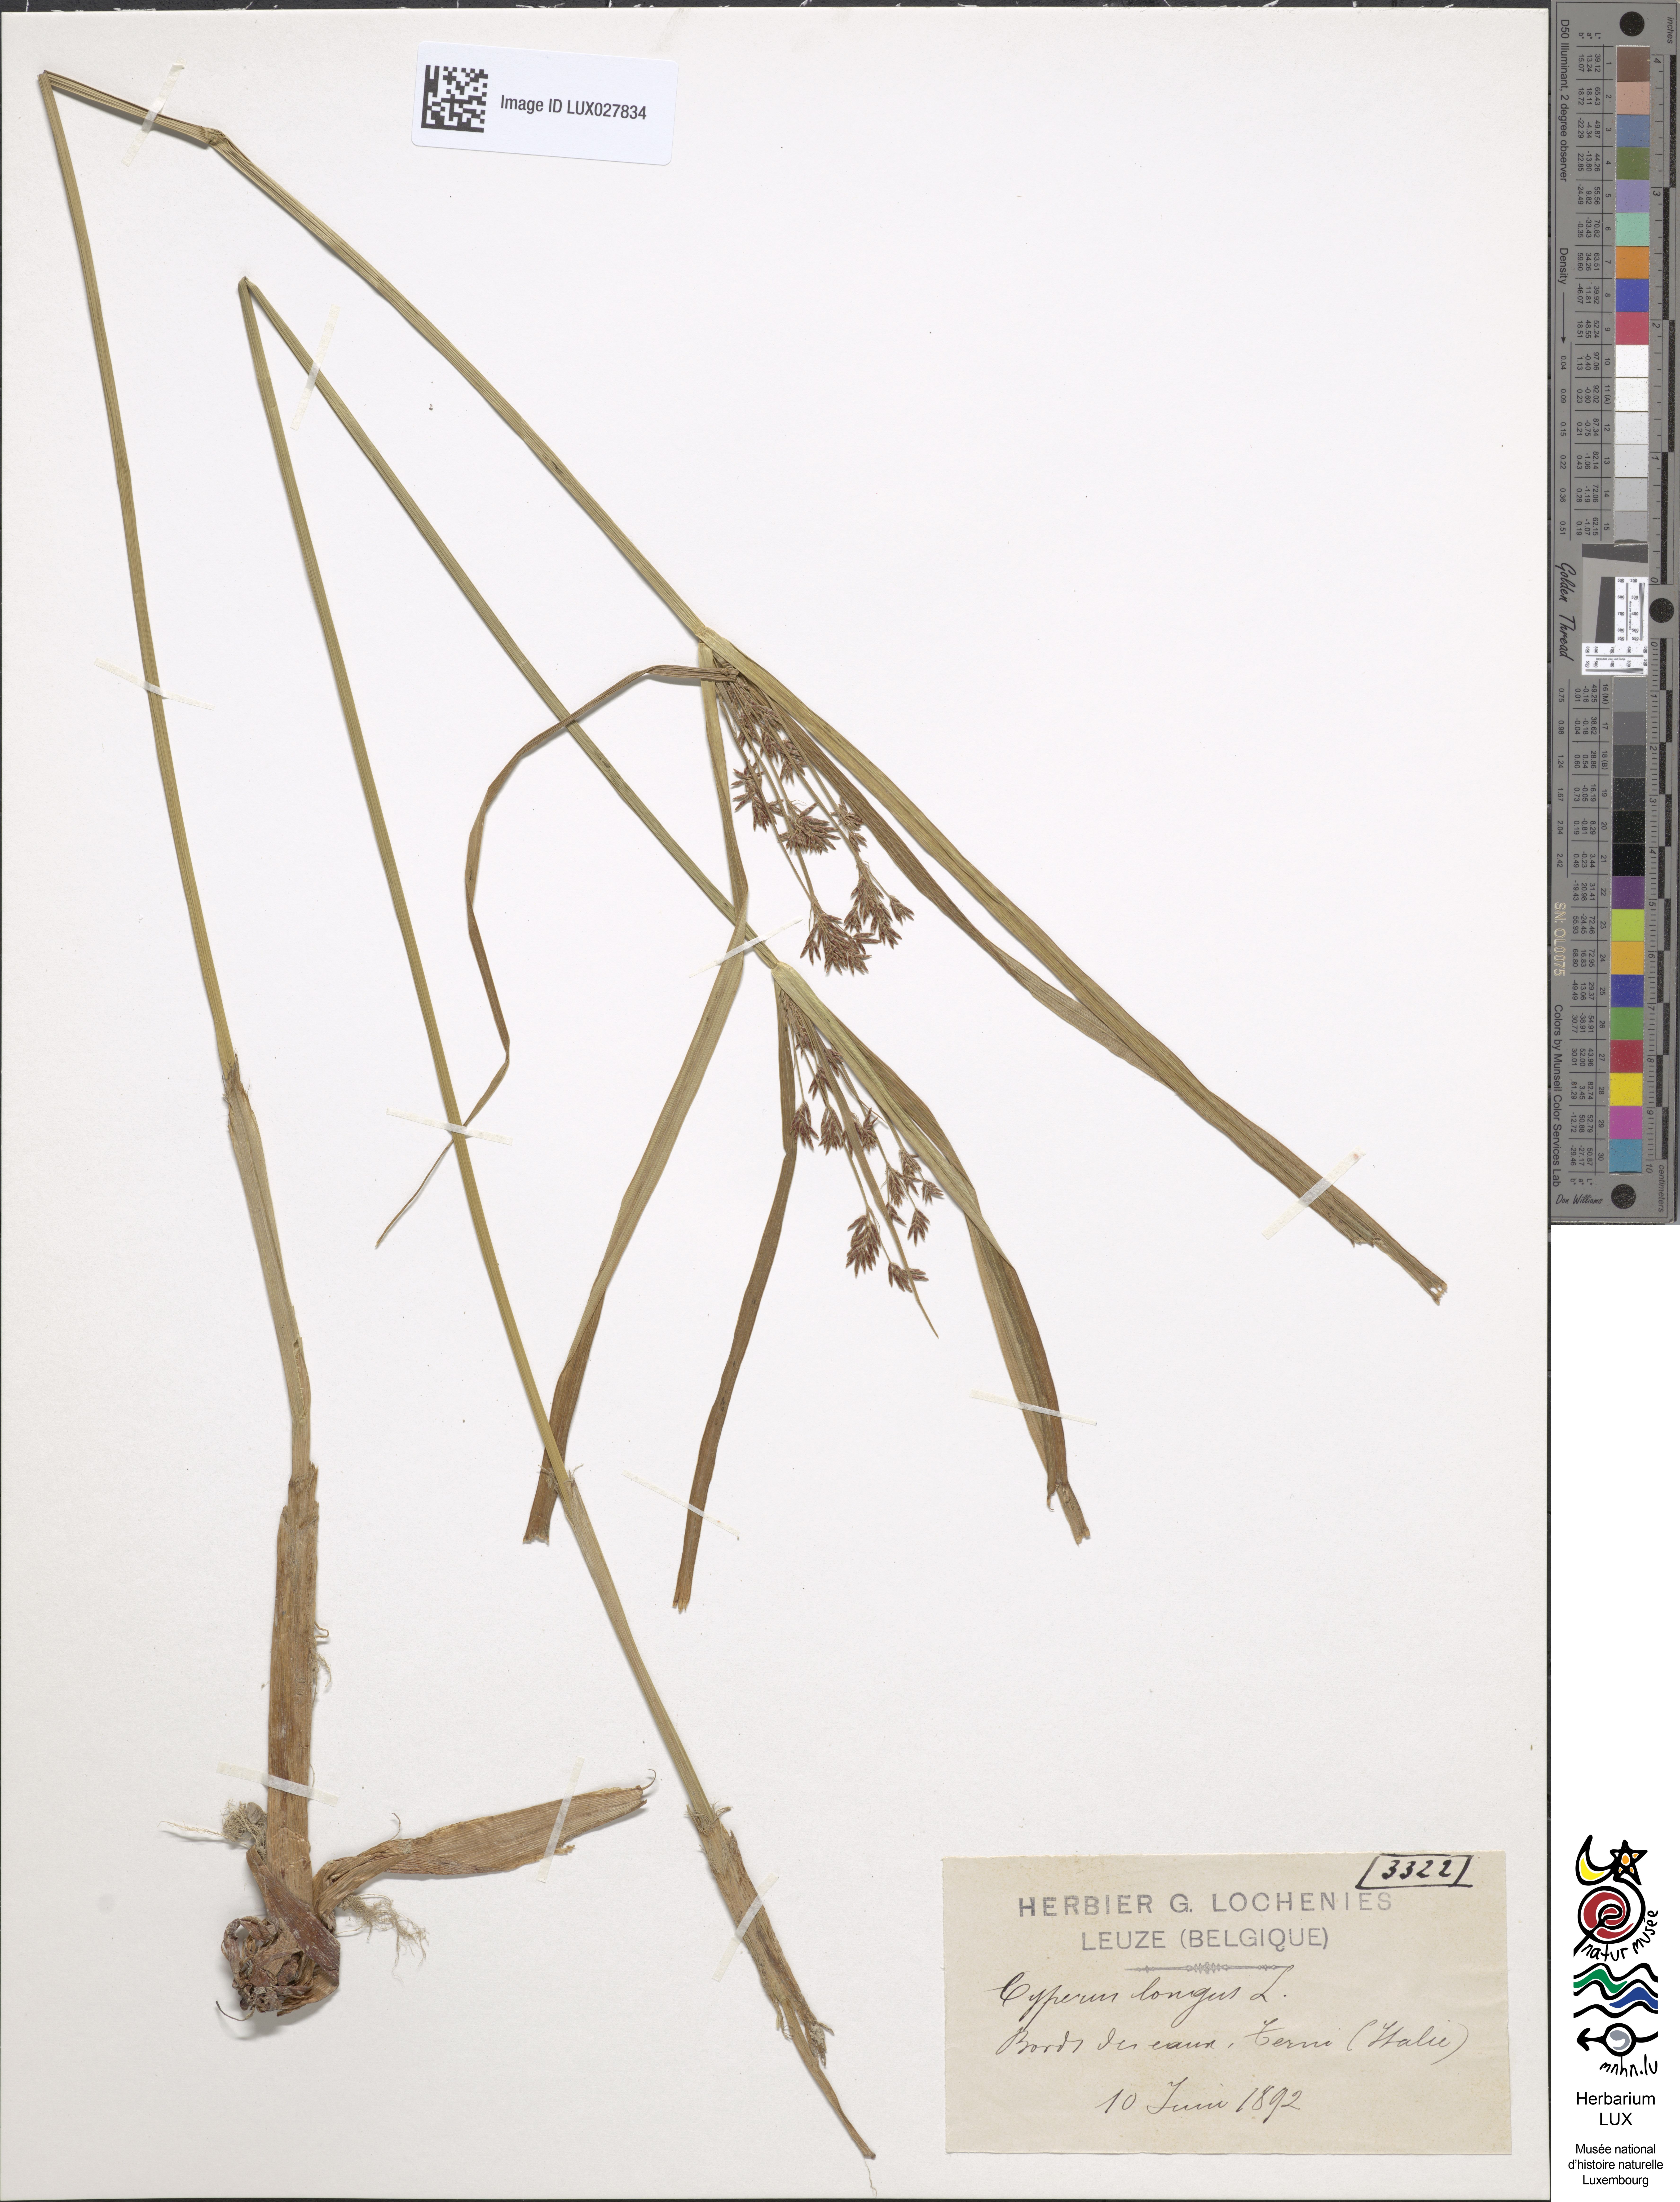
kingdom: Plantae
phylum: Tracheophyta
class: Liliopsida
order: Poales
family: Cyperaceae
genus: Cyperus
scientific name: Cyperus longus
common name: Galingale
